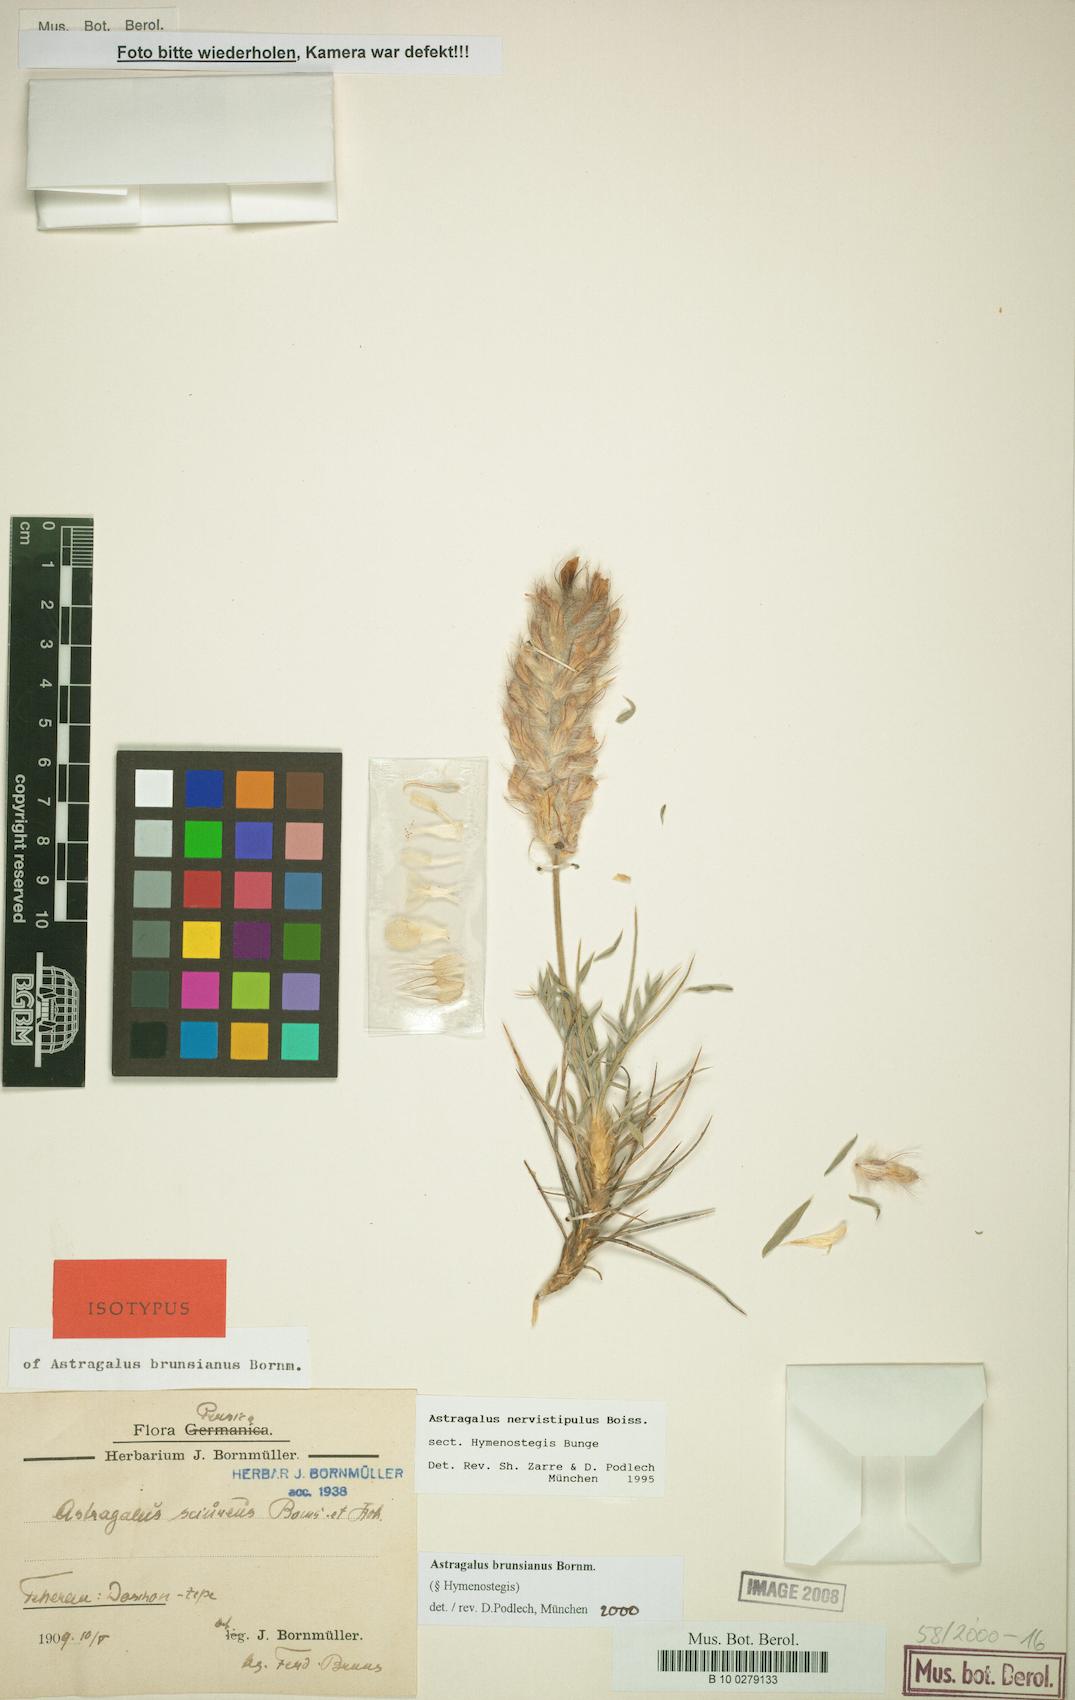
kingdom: Plantae
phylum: Tracheophyta
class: Magnoliopsida
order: Fabales
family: Fabaceae
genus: Astragalus
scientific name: Astragalus brunsianus
